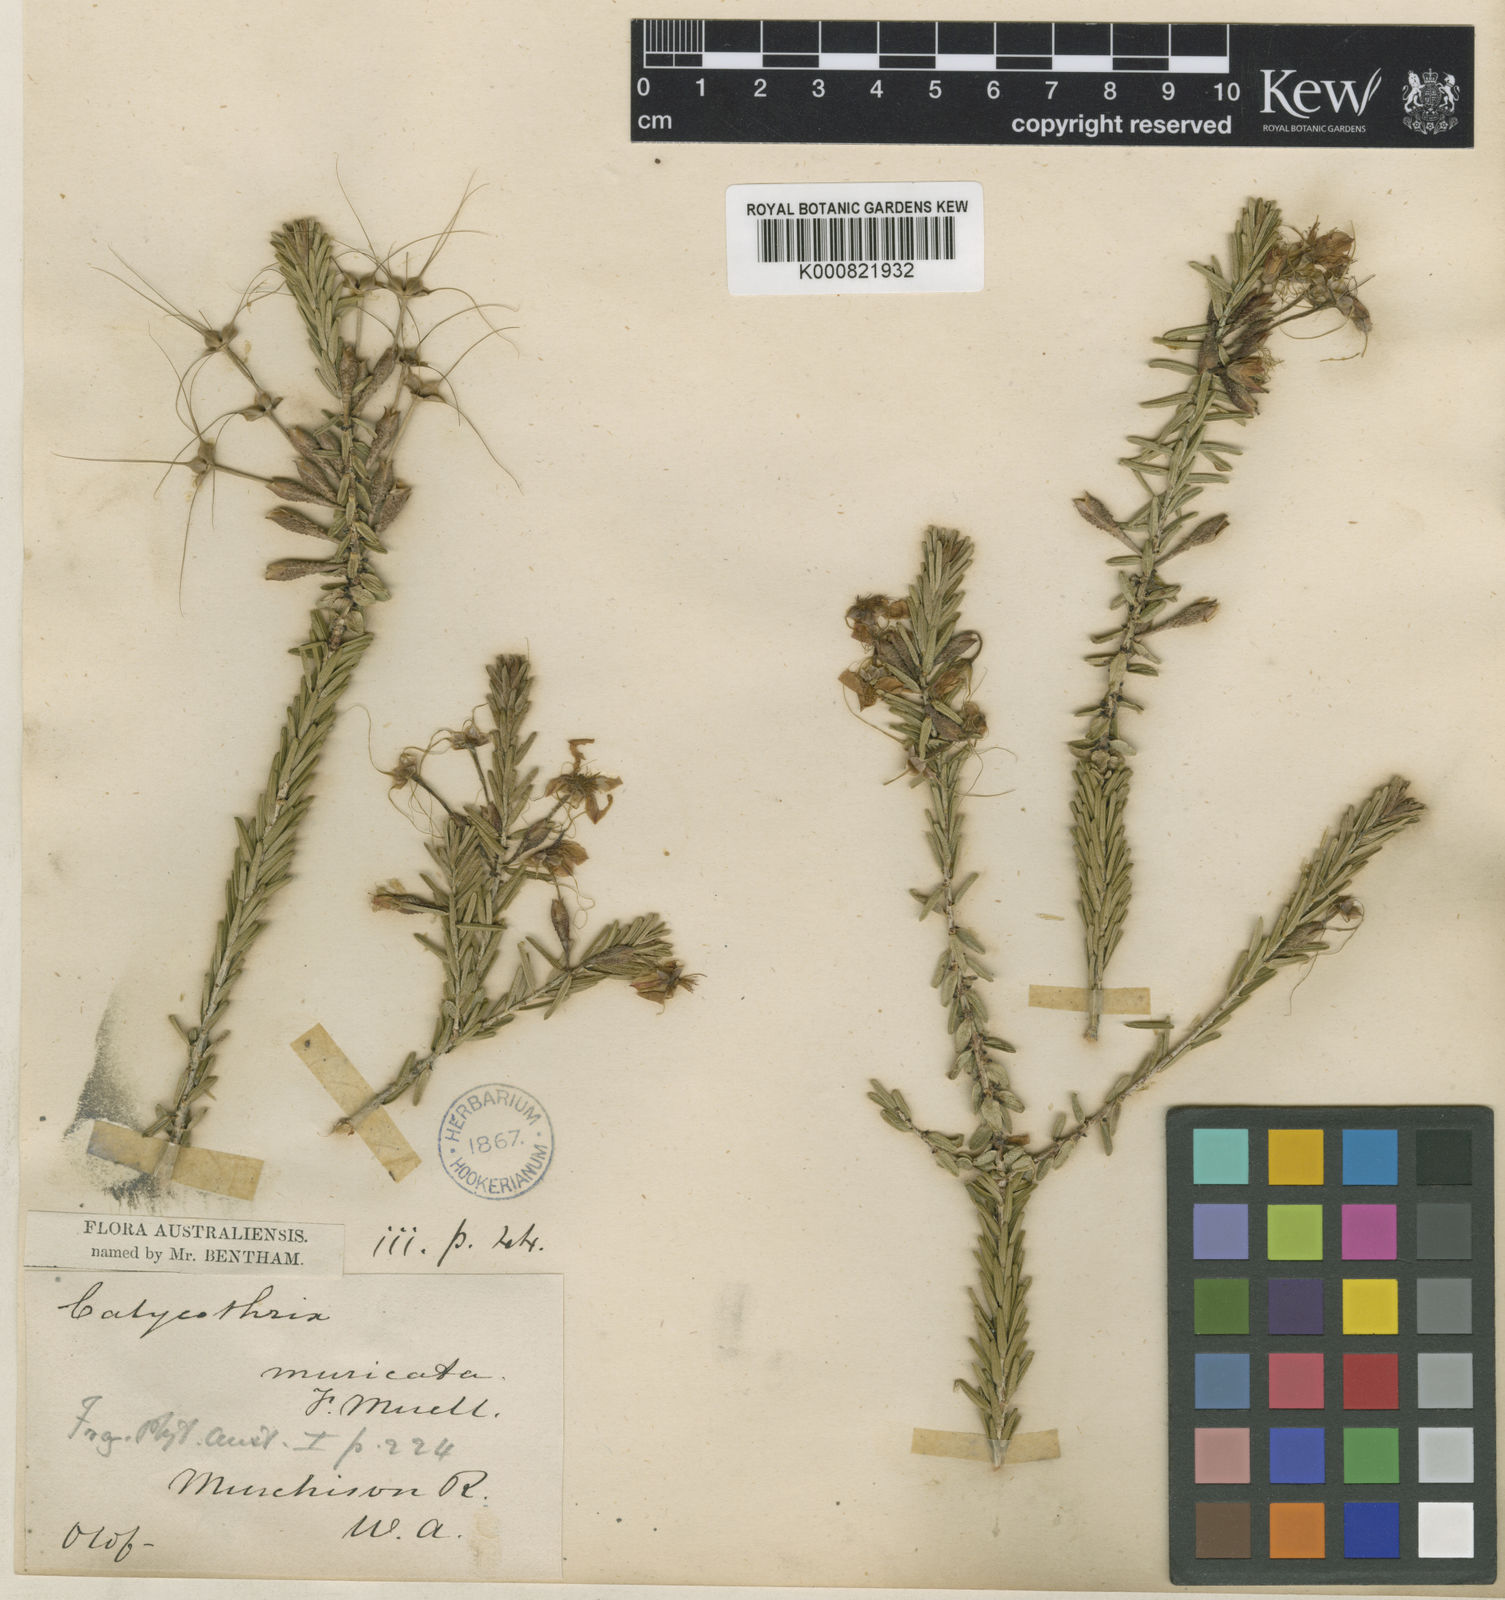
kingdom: Plantae
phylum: Tracheophyta
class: Magnoliopsida
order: Myrtales
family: Myrtaceae
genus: Calytrix
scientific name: Calytrix brevifolia
